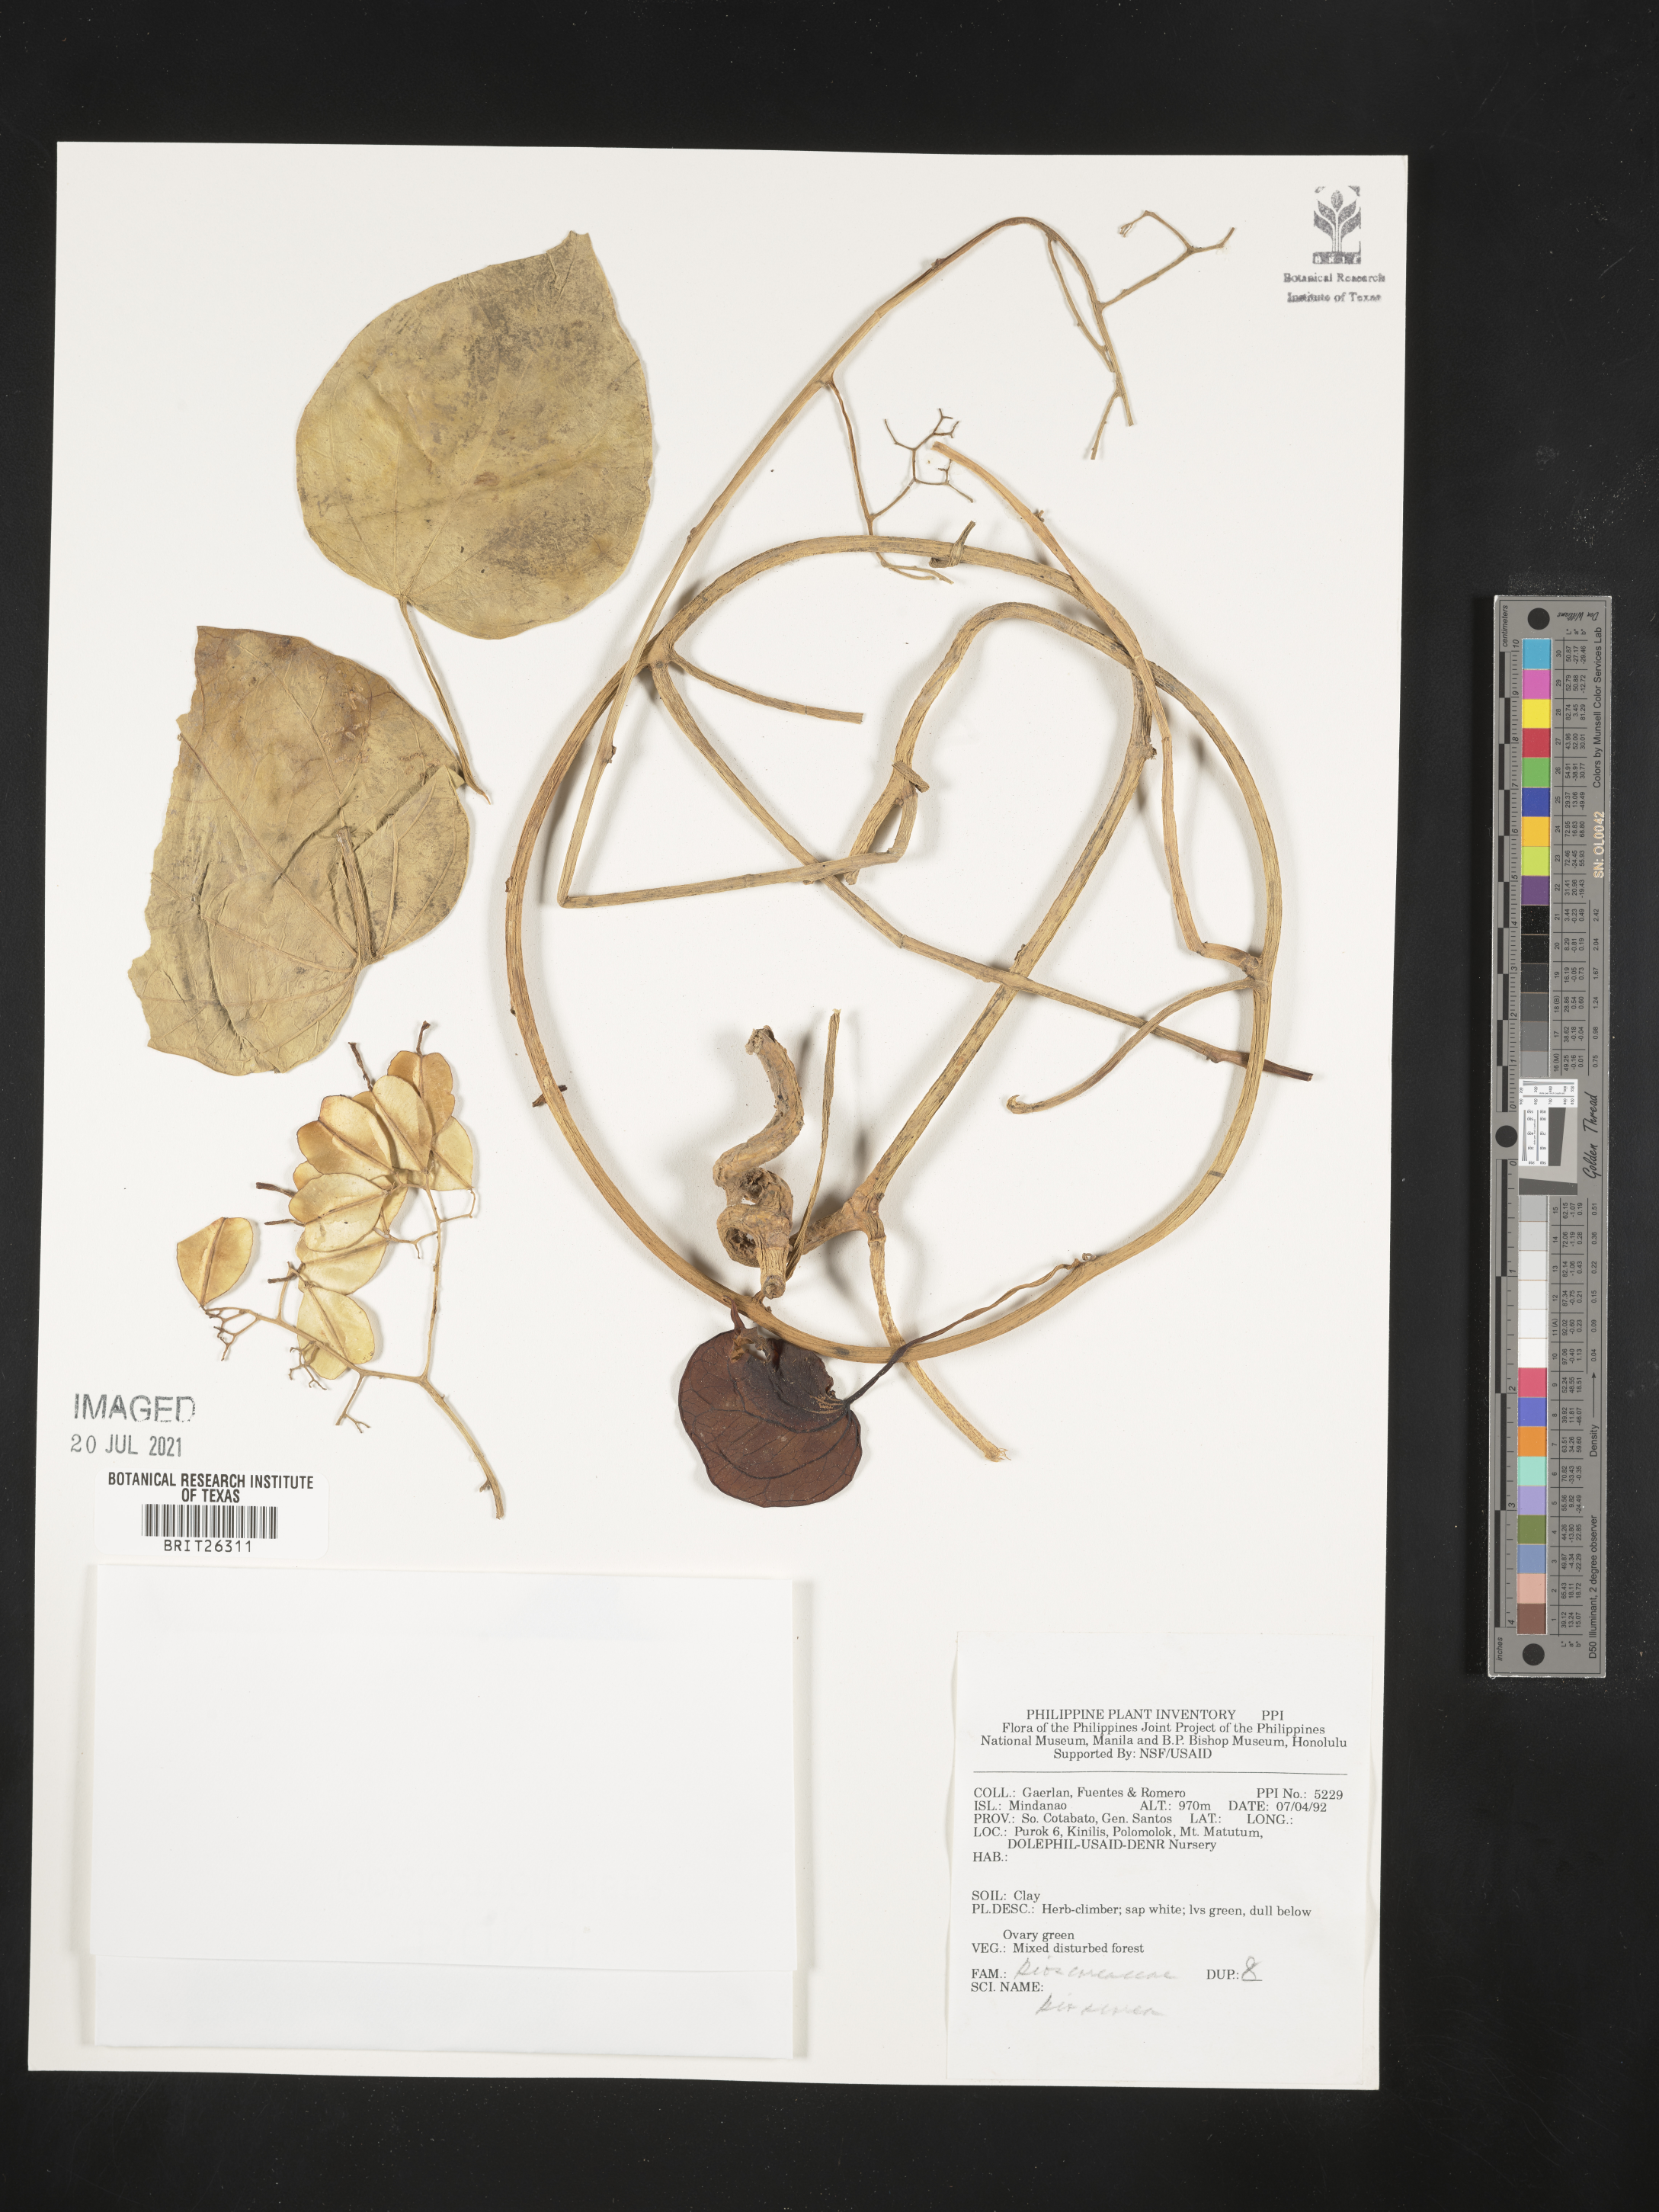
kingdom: Plantae
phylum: Tracheophyta
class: Liliopsida
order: Dioscoreales
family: Dioscoreaceae
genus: Dioscorea
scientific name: Dioscorea
